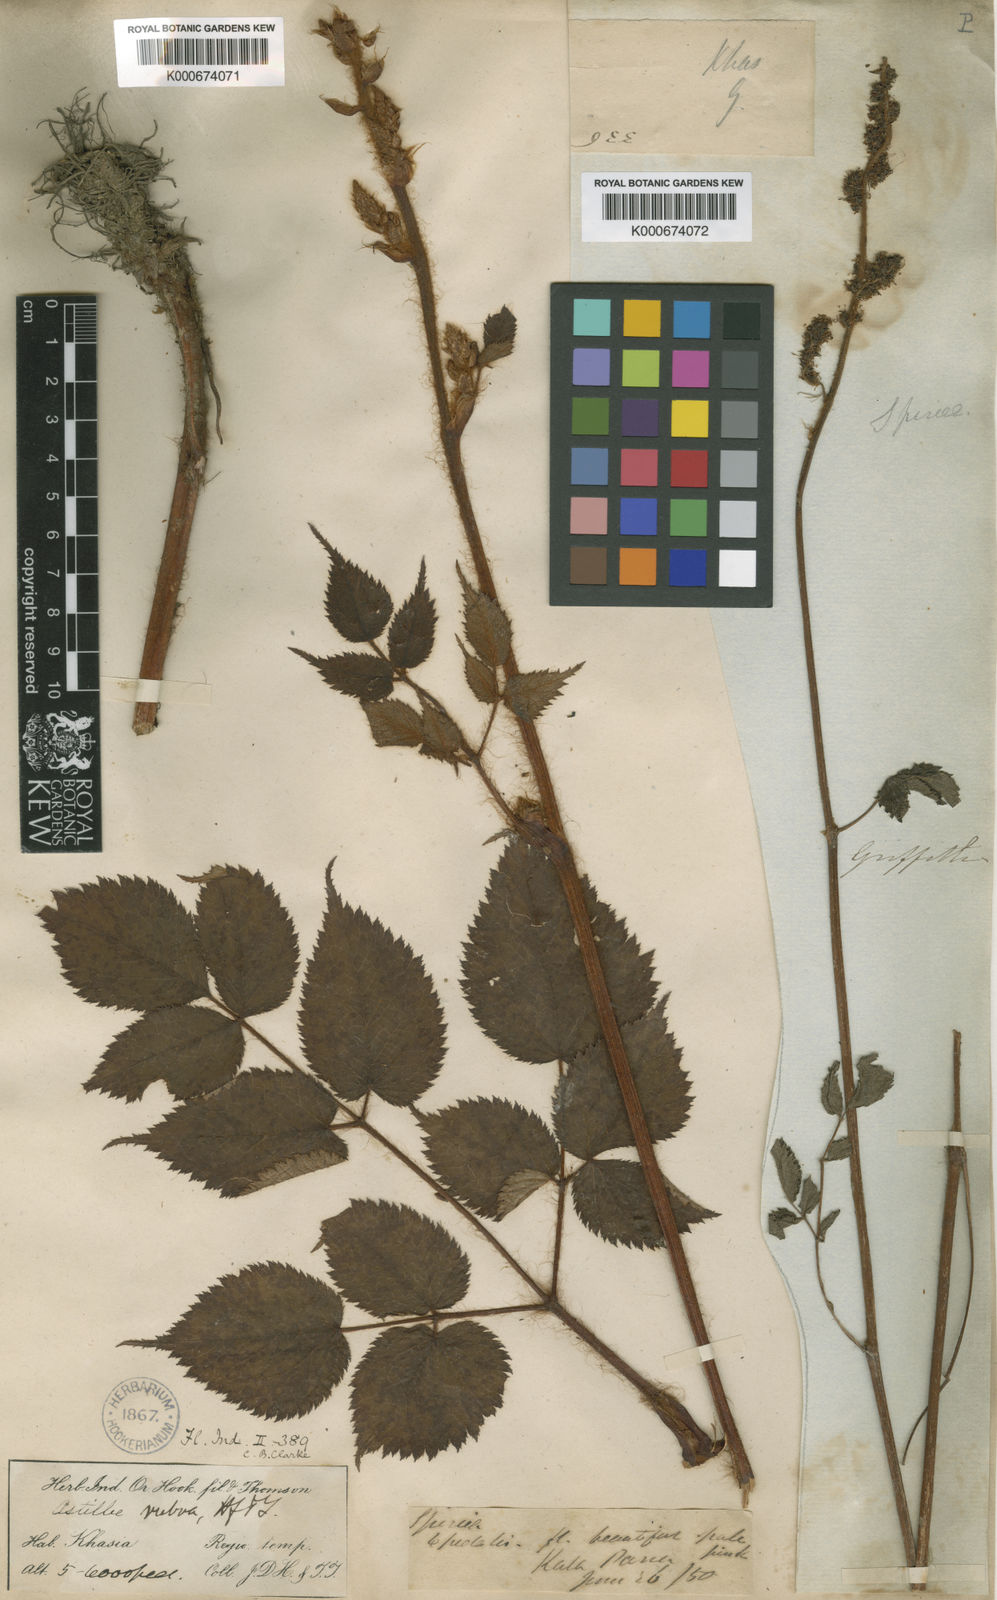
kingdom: Plantae
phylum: Tracheophyta
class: Magnoliopsida
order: Saxifragales
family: Saxifragaceae
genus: Astilbe
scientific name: Astilbe rubra
